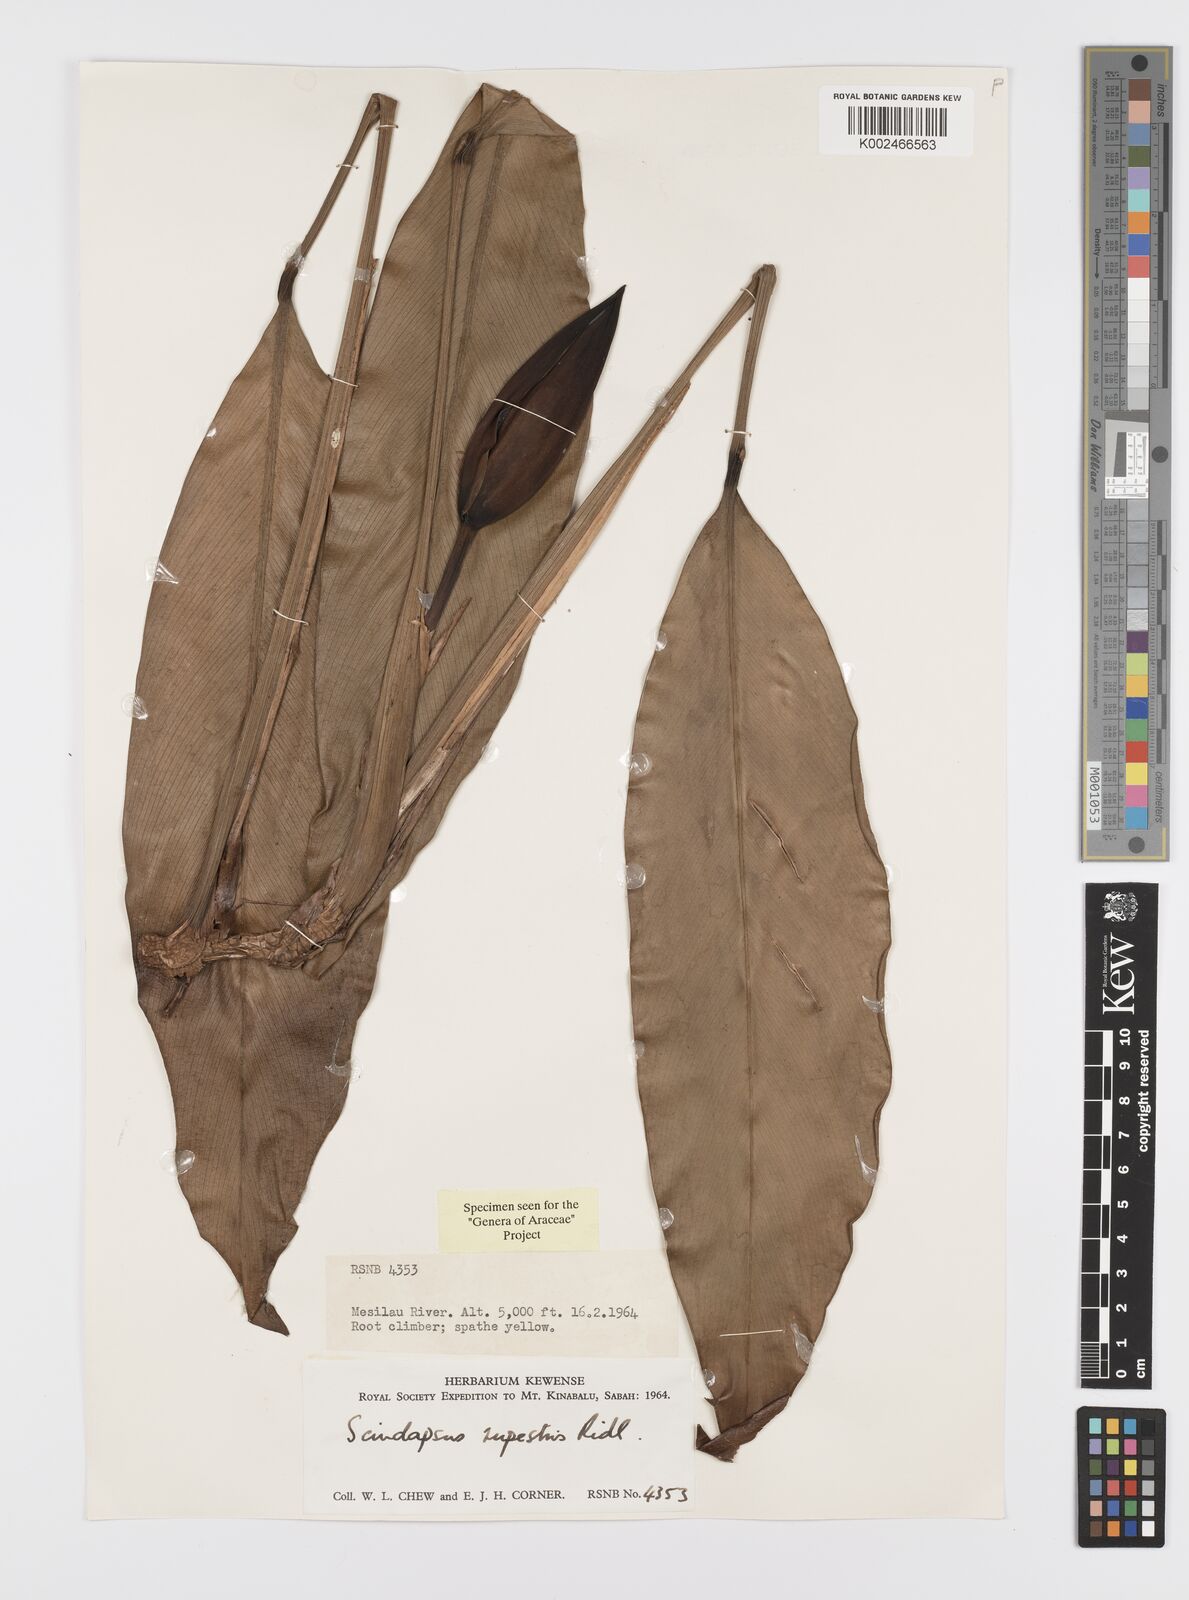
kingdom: Plantae
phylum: Tracheophyta
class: Liliopsida
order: Alismatales
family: Araceae
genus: Scindapsus
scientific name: Scindapsus coriaceus
